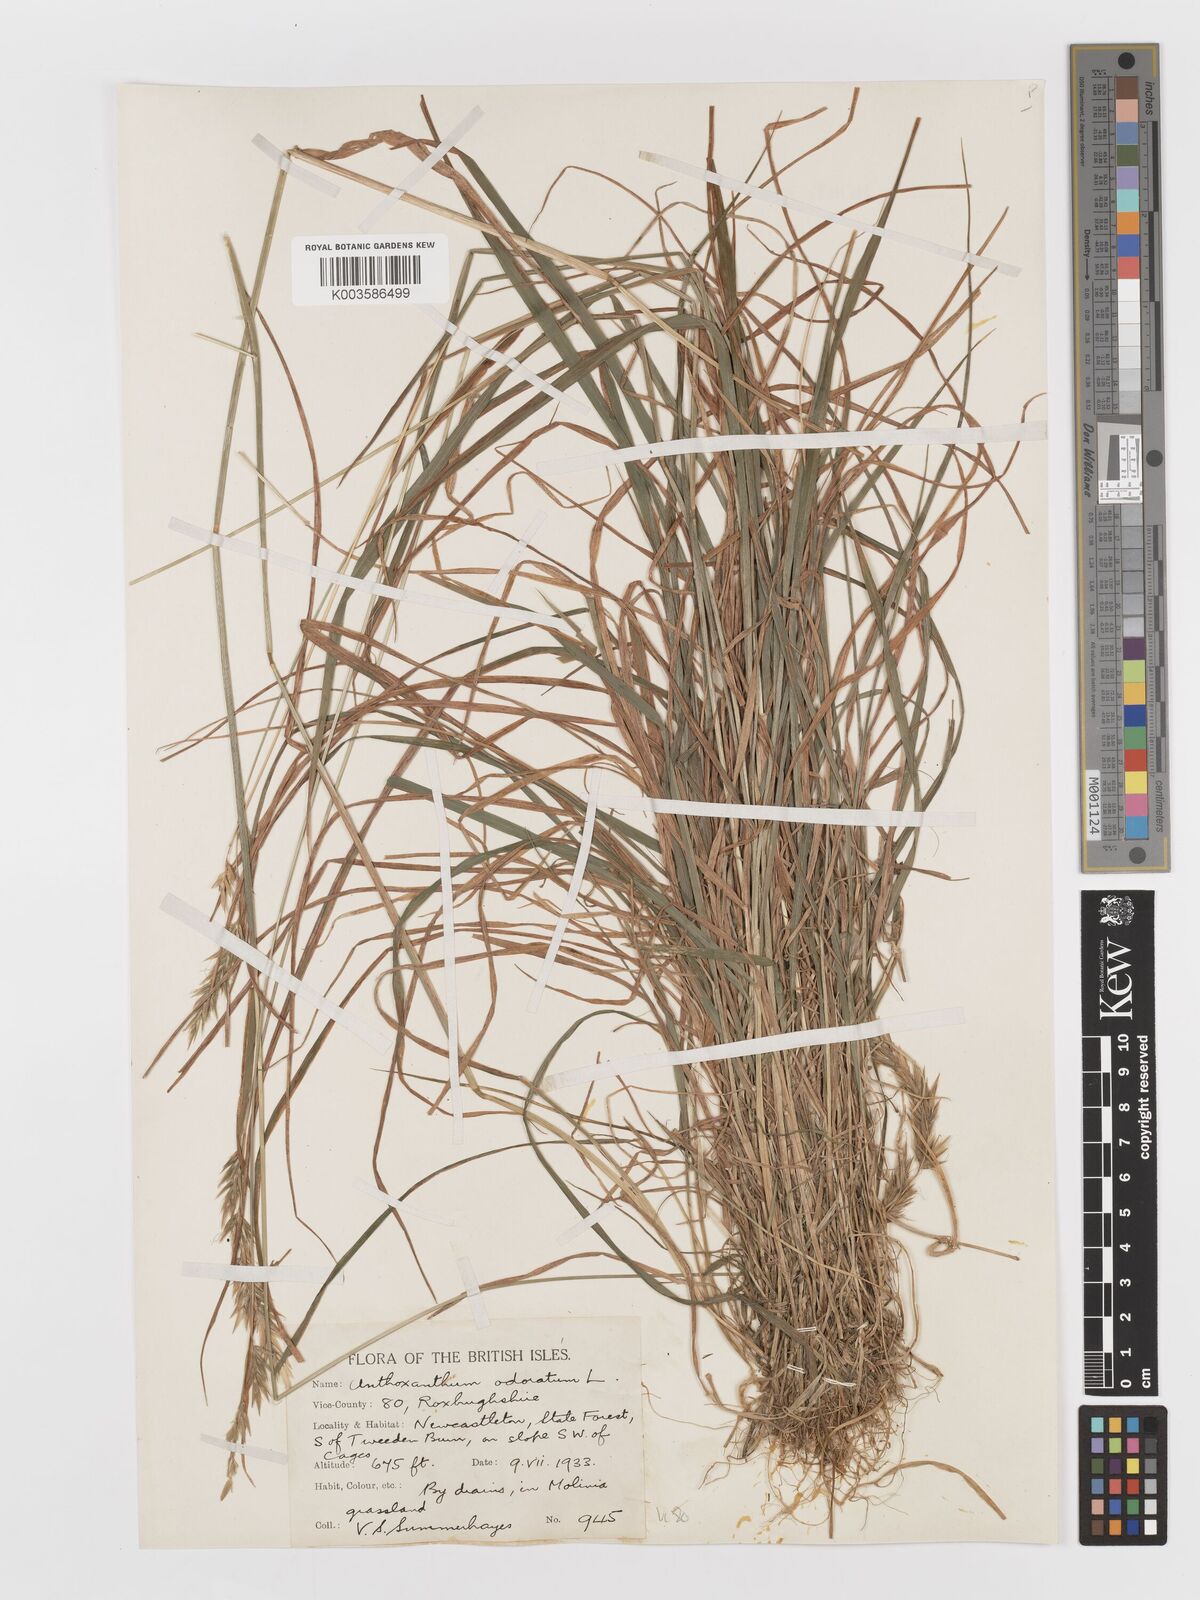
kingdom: Plantae
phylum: Tracheophyta
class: Liliopsida
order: Poales
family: Poaceae
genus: Anthoxanthum
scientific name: Anthoxanthum odoratum
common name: Sweet vernalgrass
